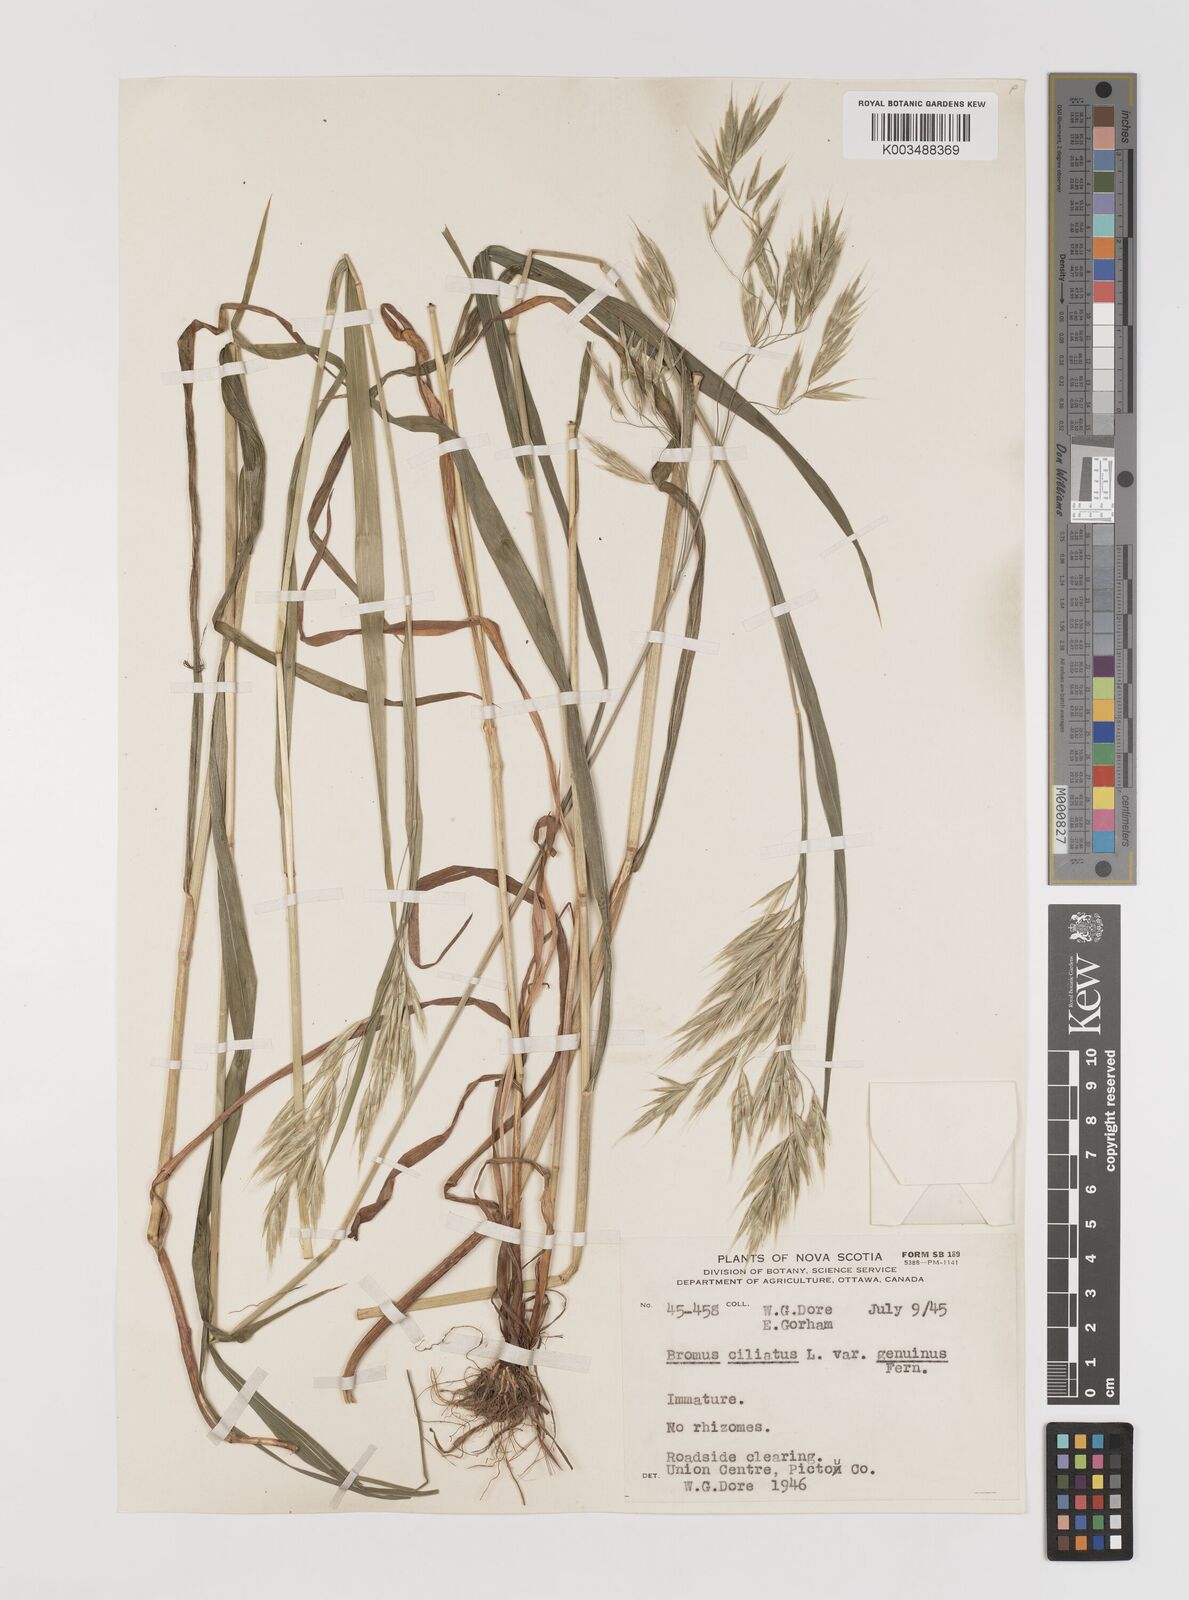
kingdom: Plantae
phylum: Tracheophyta
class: Liliopsida
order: Poales
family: Poaceae
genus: Bromus
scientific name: Bromus ciliatus
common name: Fringe brome
